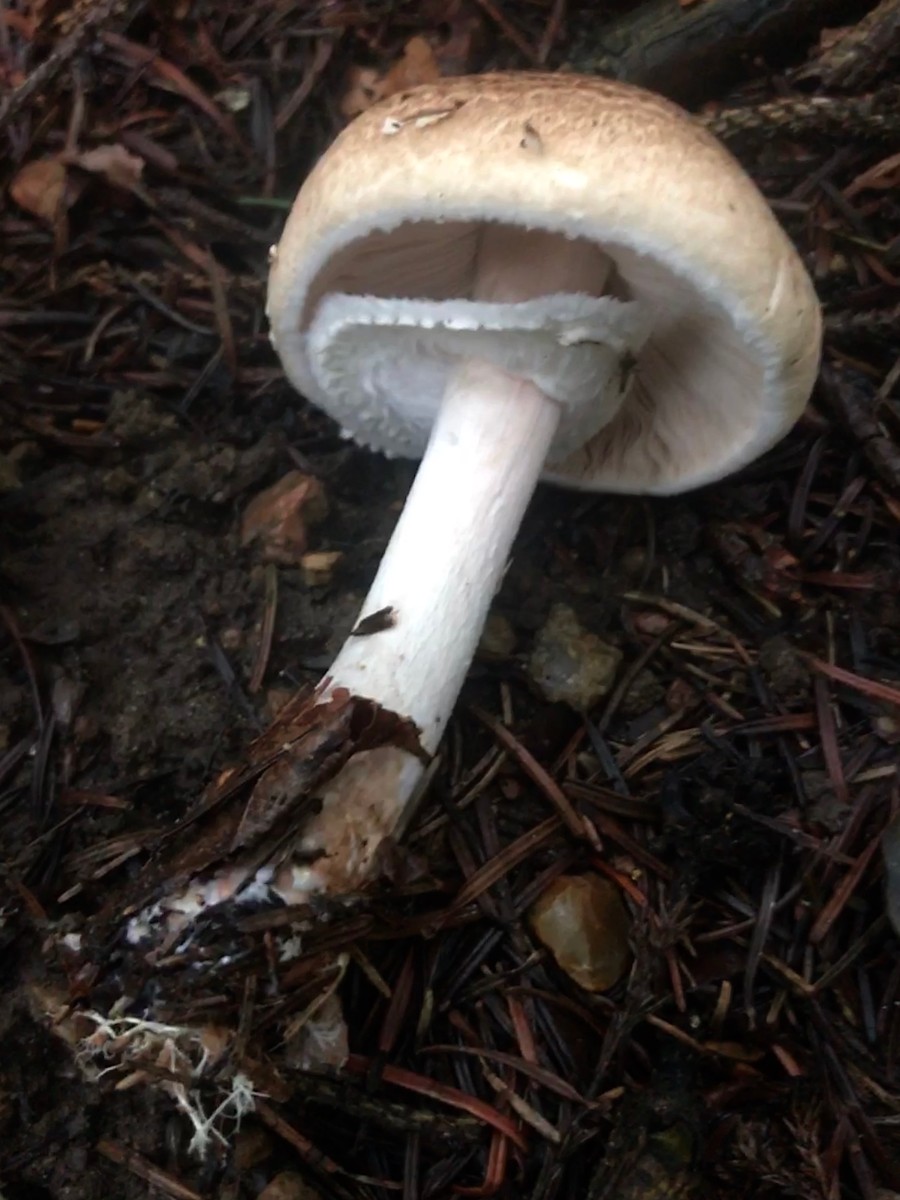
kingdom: Fungi
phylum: Basidiomycota
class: Agaricomycetes
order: Agaricales
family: Agaricaceae
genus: Agaricus
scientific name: Agaricus impudicus
